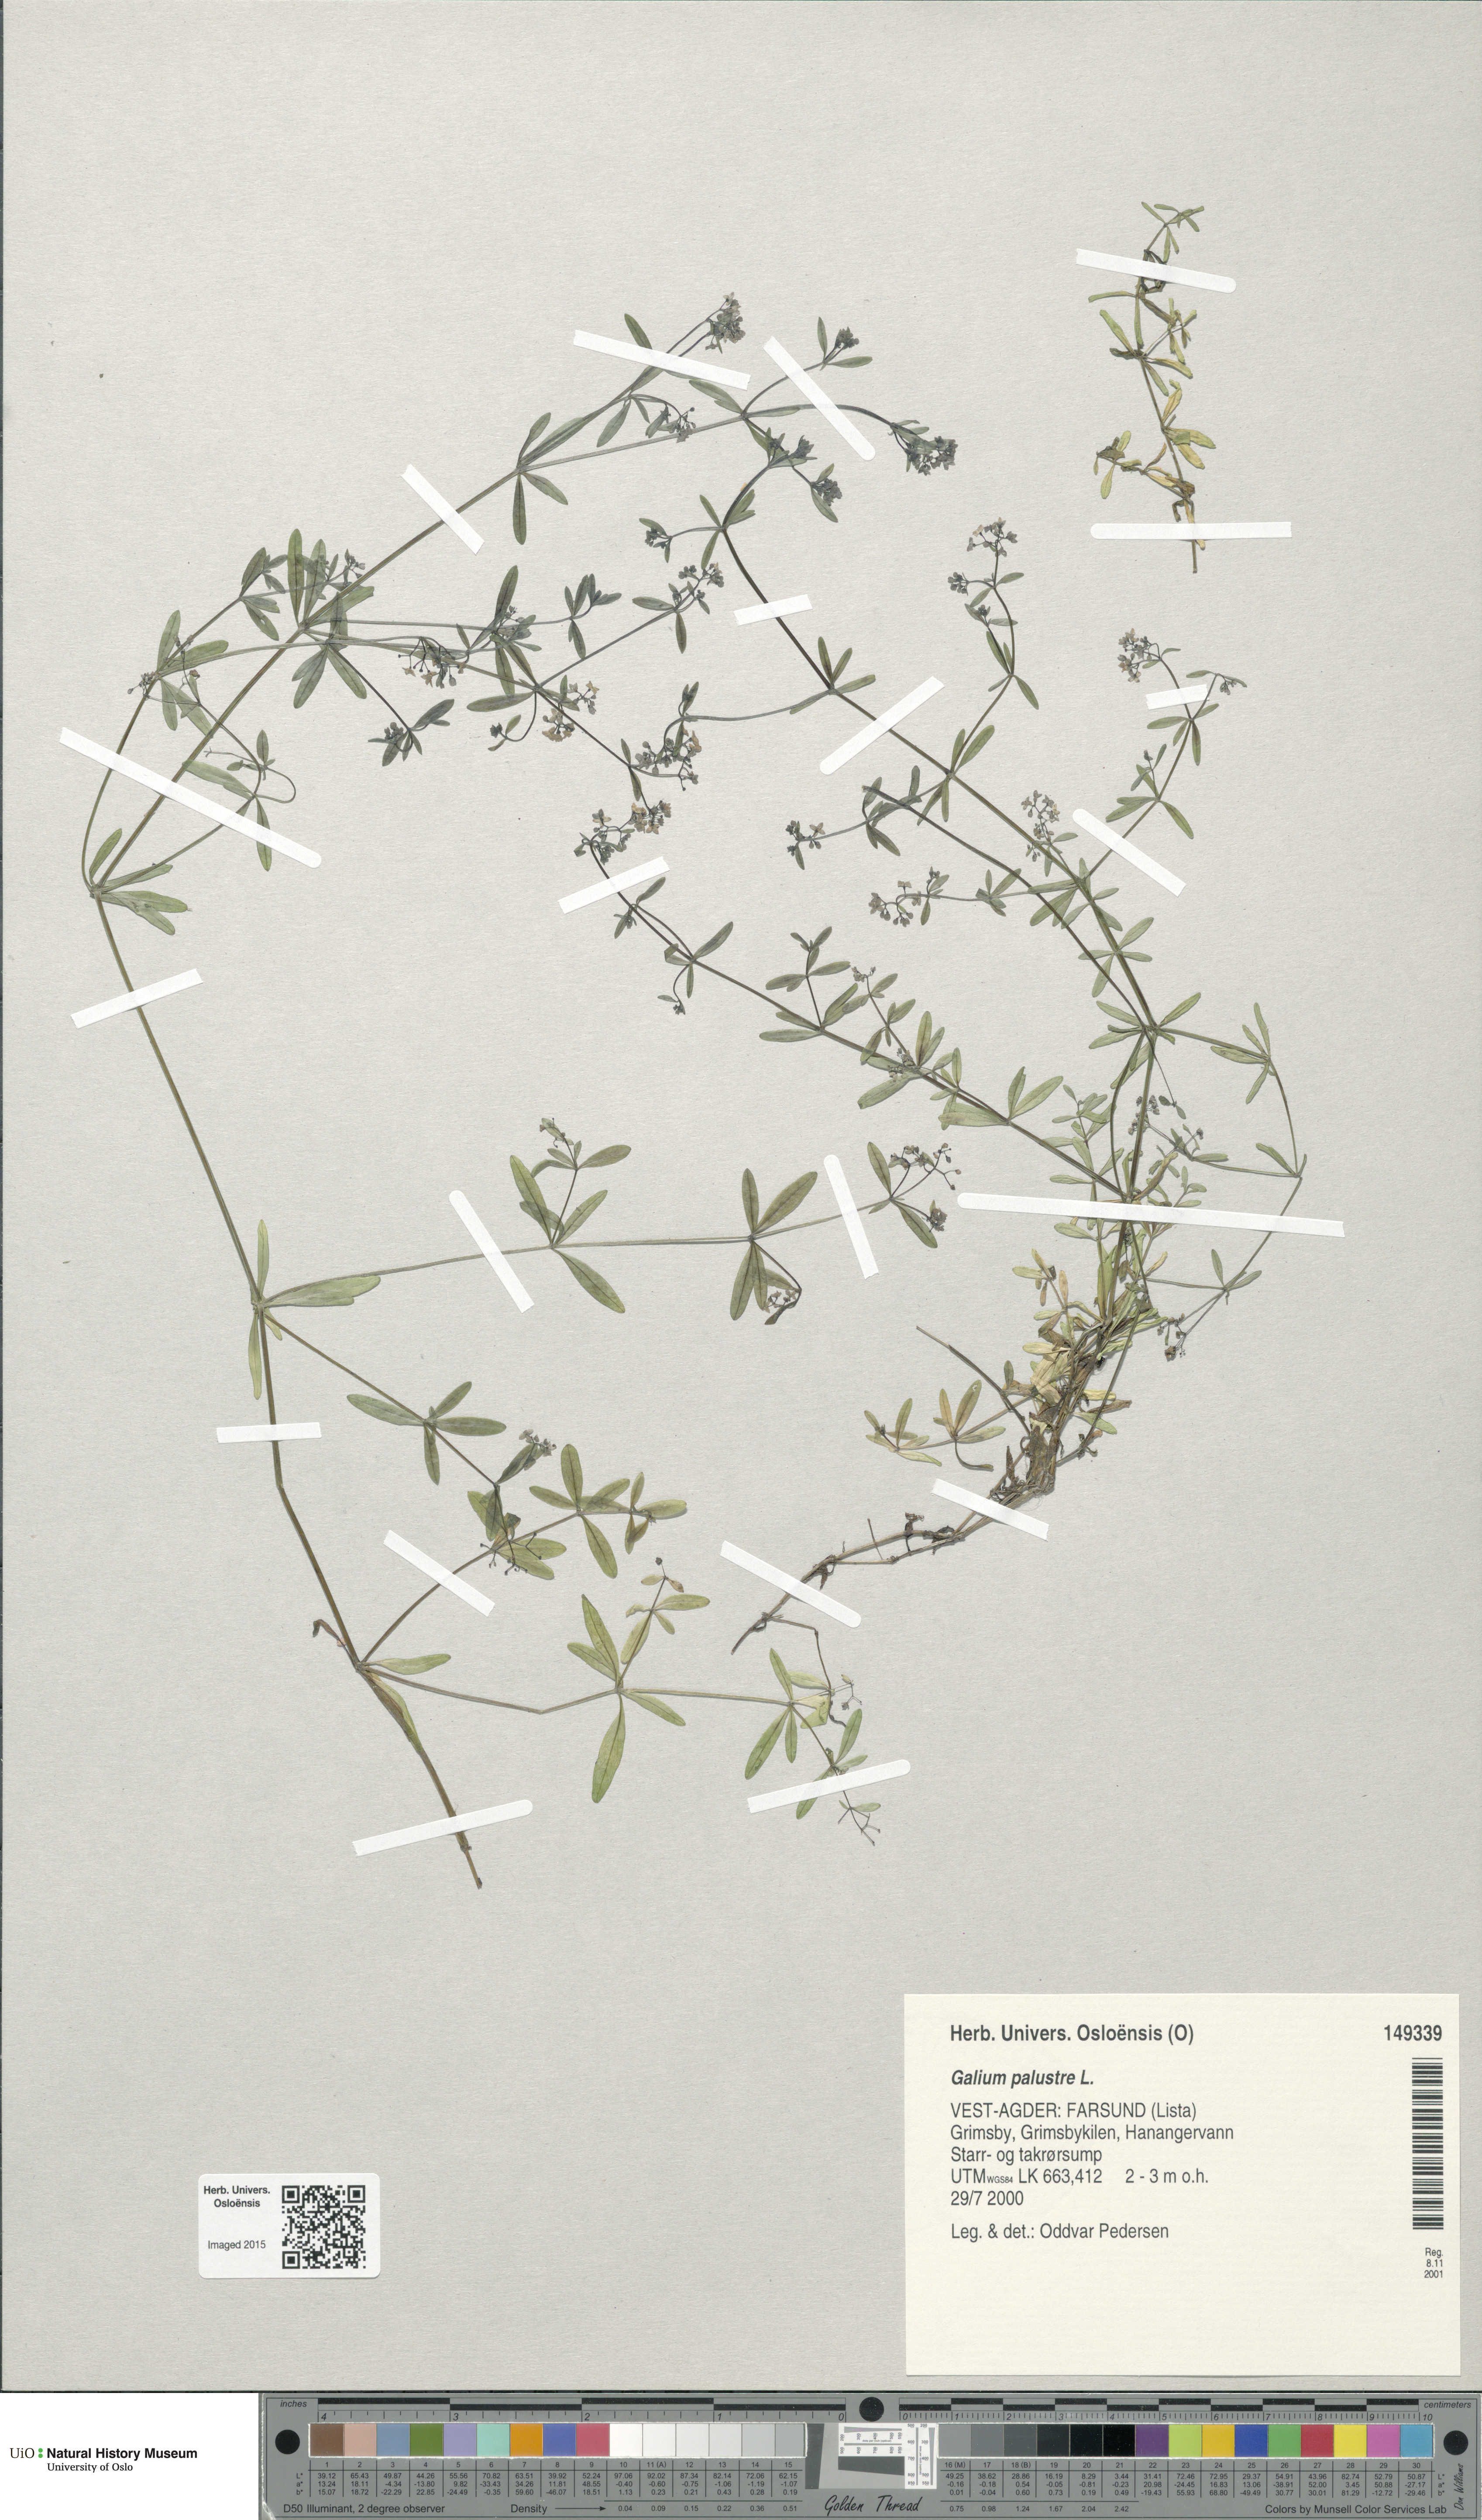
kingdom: Plantae
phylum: Tracheophyta
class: Magnoliopsida
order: Gentianales
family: Rubiaceae
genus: Galium
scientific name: Galium palustre
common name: Common marsh-bedstraw
